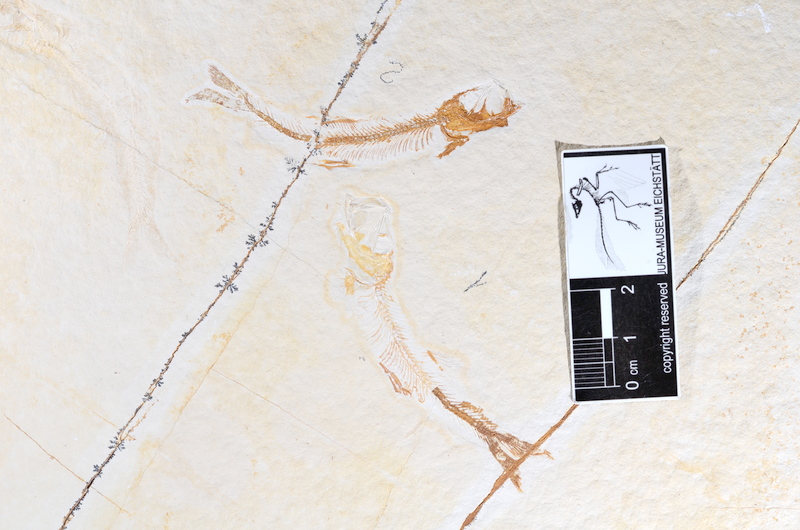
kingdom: Animalia
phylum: Chordata
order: Salmoniformes
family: Orthogonikleithridae
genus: Leptolepides
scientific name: Leptolepides sprattiformis
